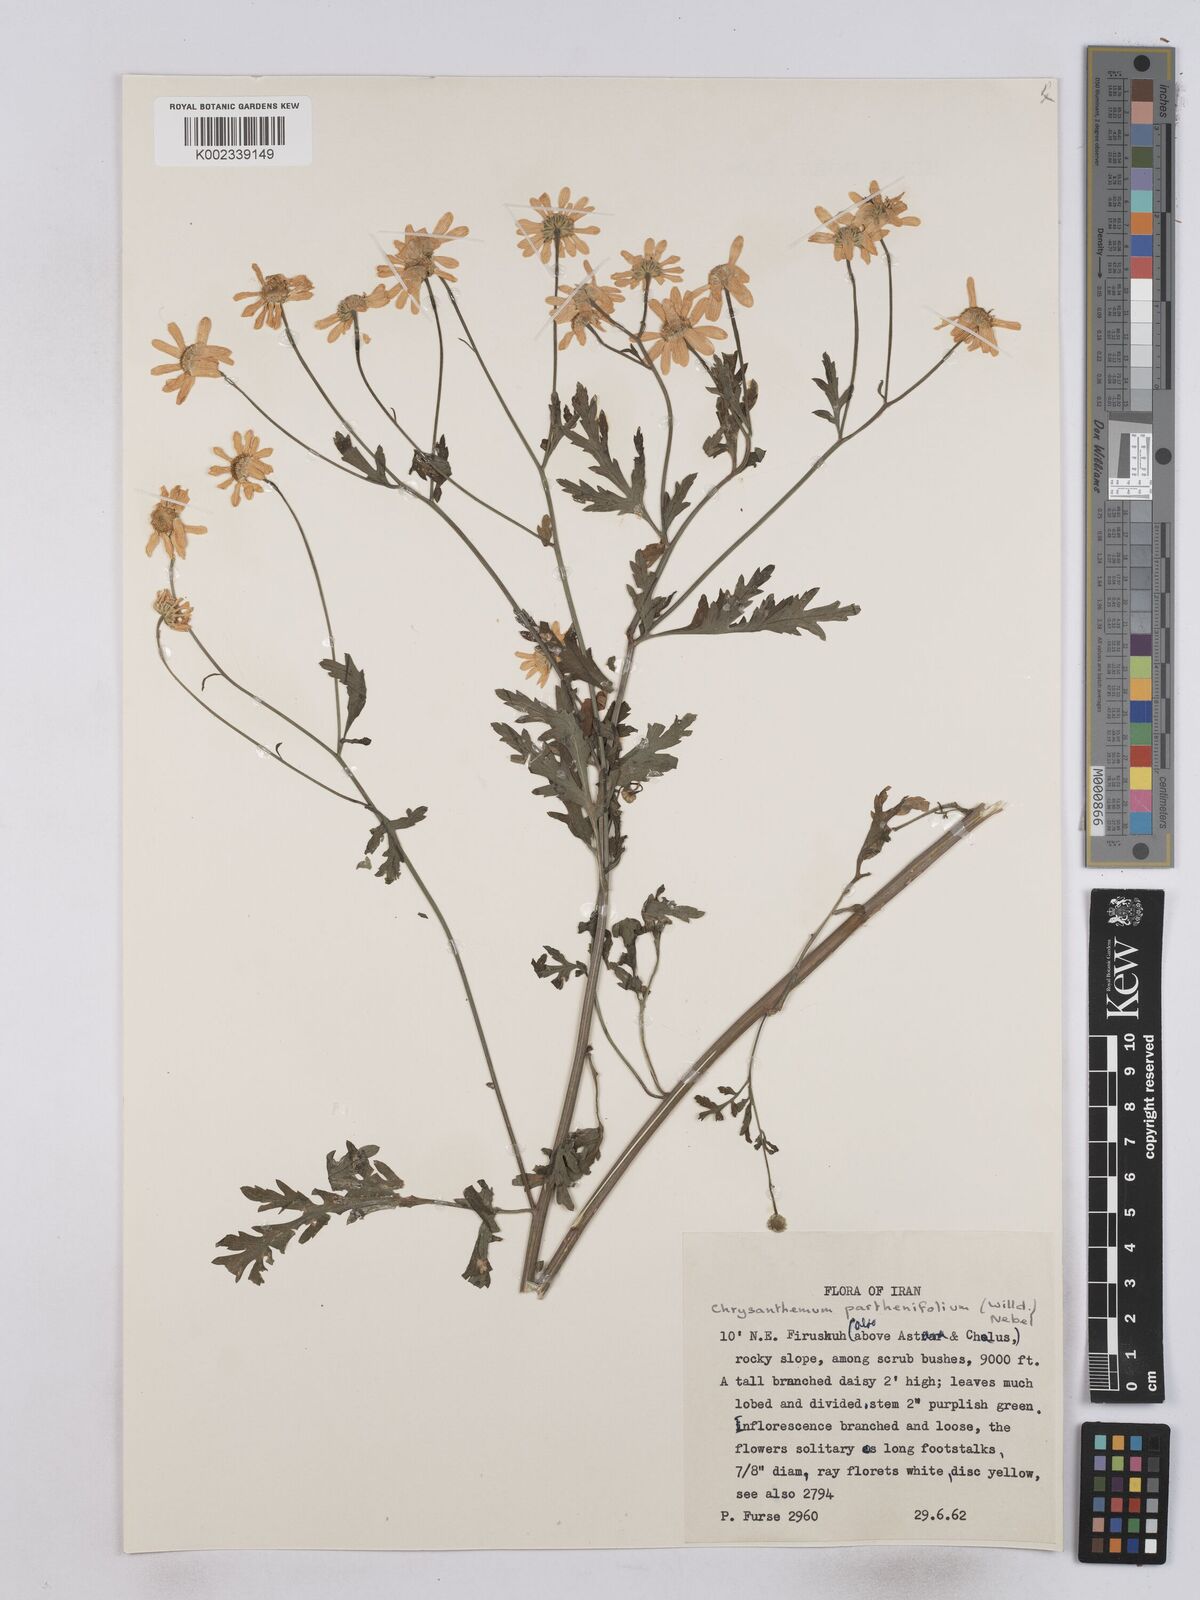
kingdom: Plantae
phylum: Tracheophyta
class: Magnoliopsida
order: Asterales
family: Asteraceae
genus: Tanacetum
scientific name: Tanacetum partheniifolium
